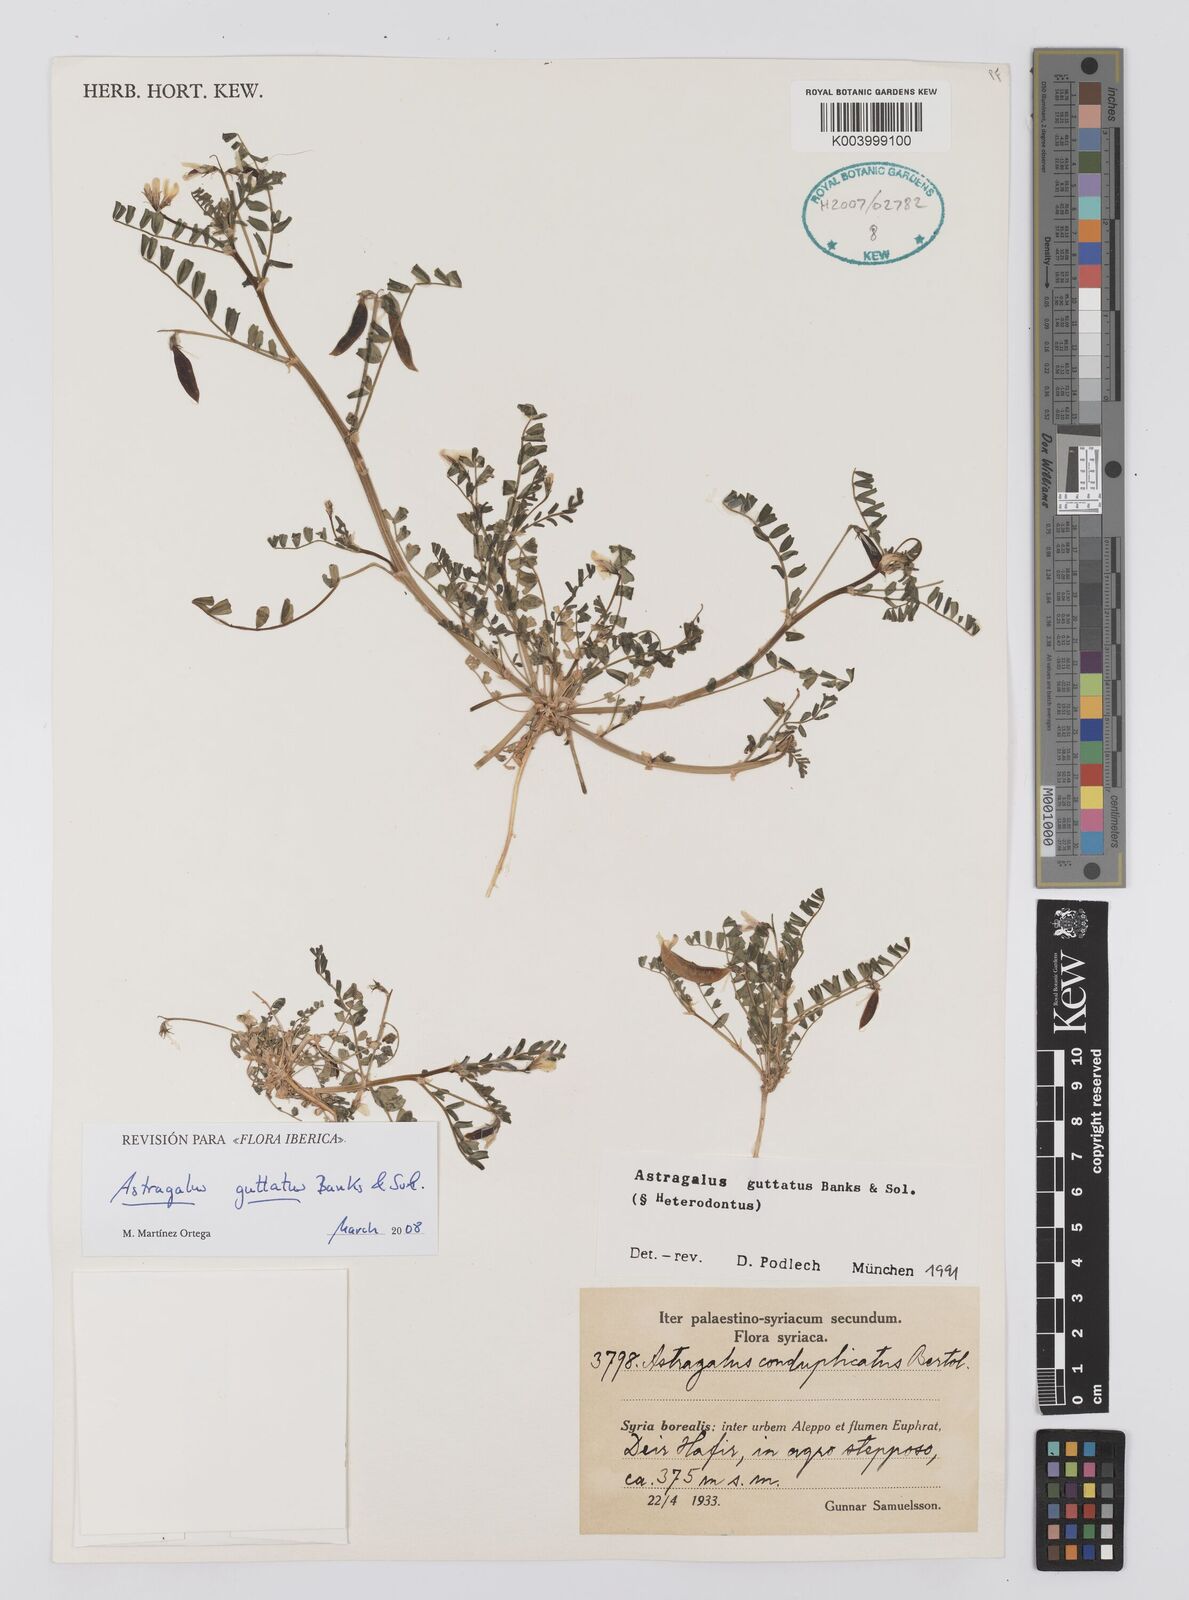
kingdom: Plantae
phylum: Tracheophyta
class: Magnoliopsida
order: Fabales
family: Fabaceae
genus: Astragalus
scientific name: Astragalus guttatus
